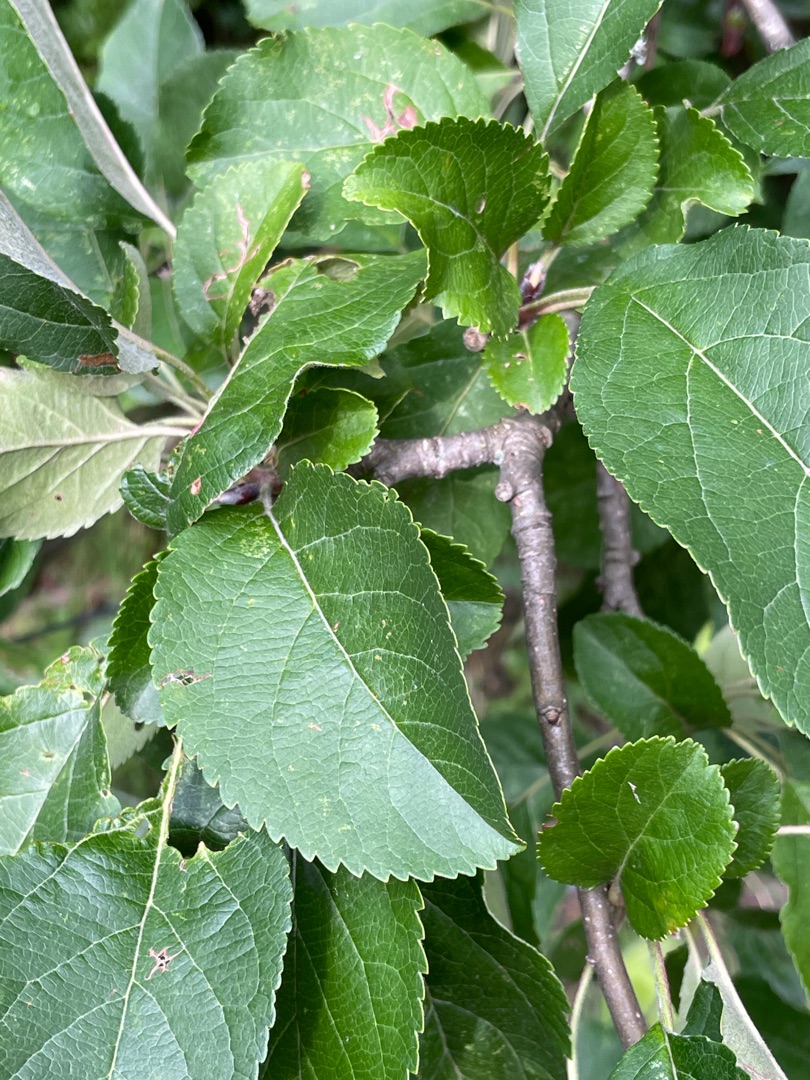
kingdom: Plantae
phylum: Tracheophyta
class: Magnoliopsida
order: Rosales
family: Rosaceae
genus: Malus
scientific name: Malus domestica
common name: Sød-æble
